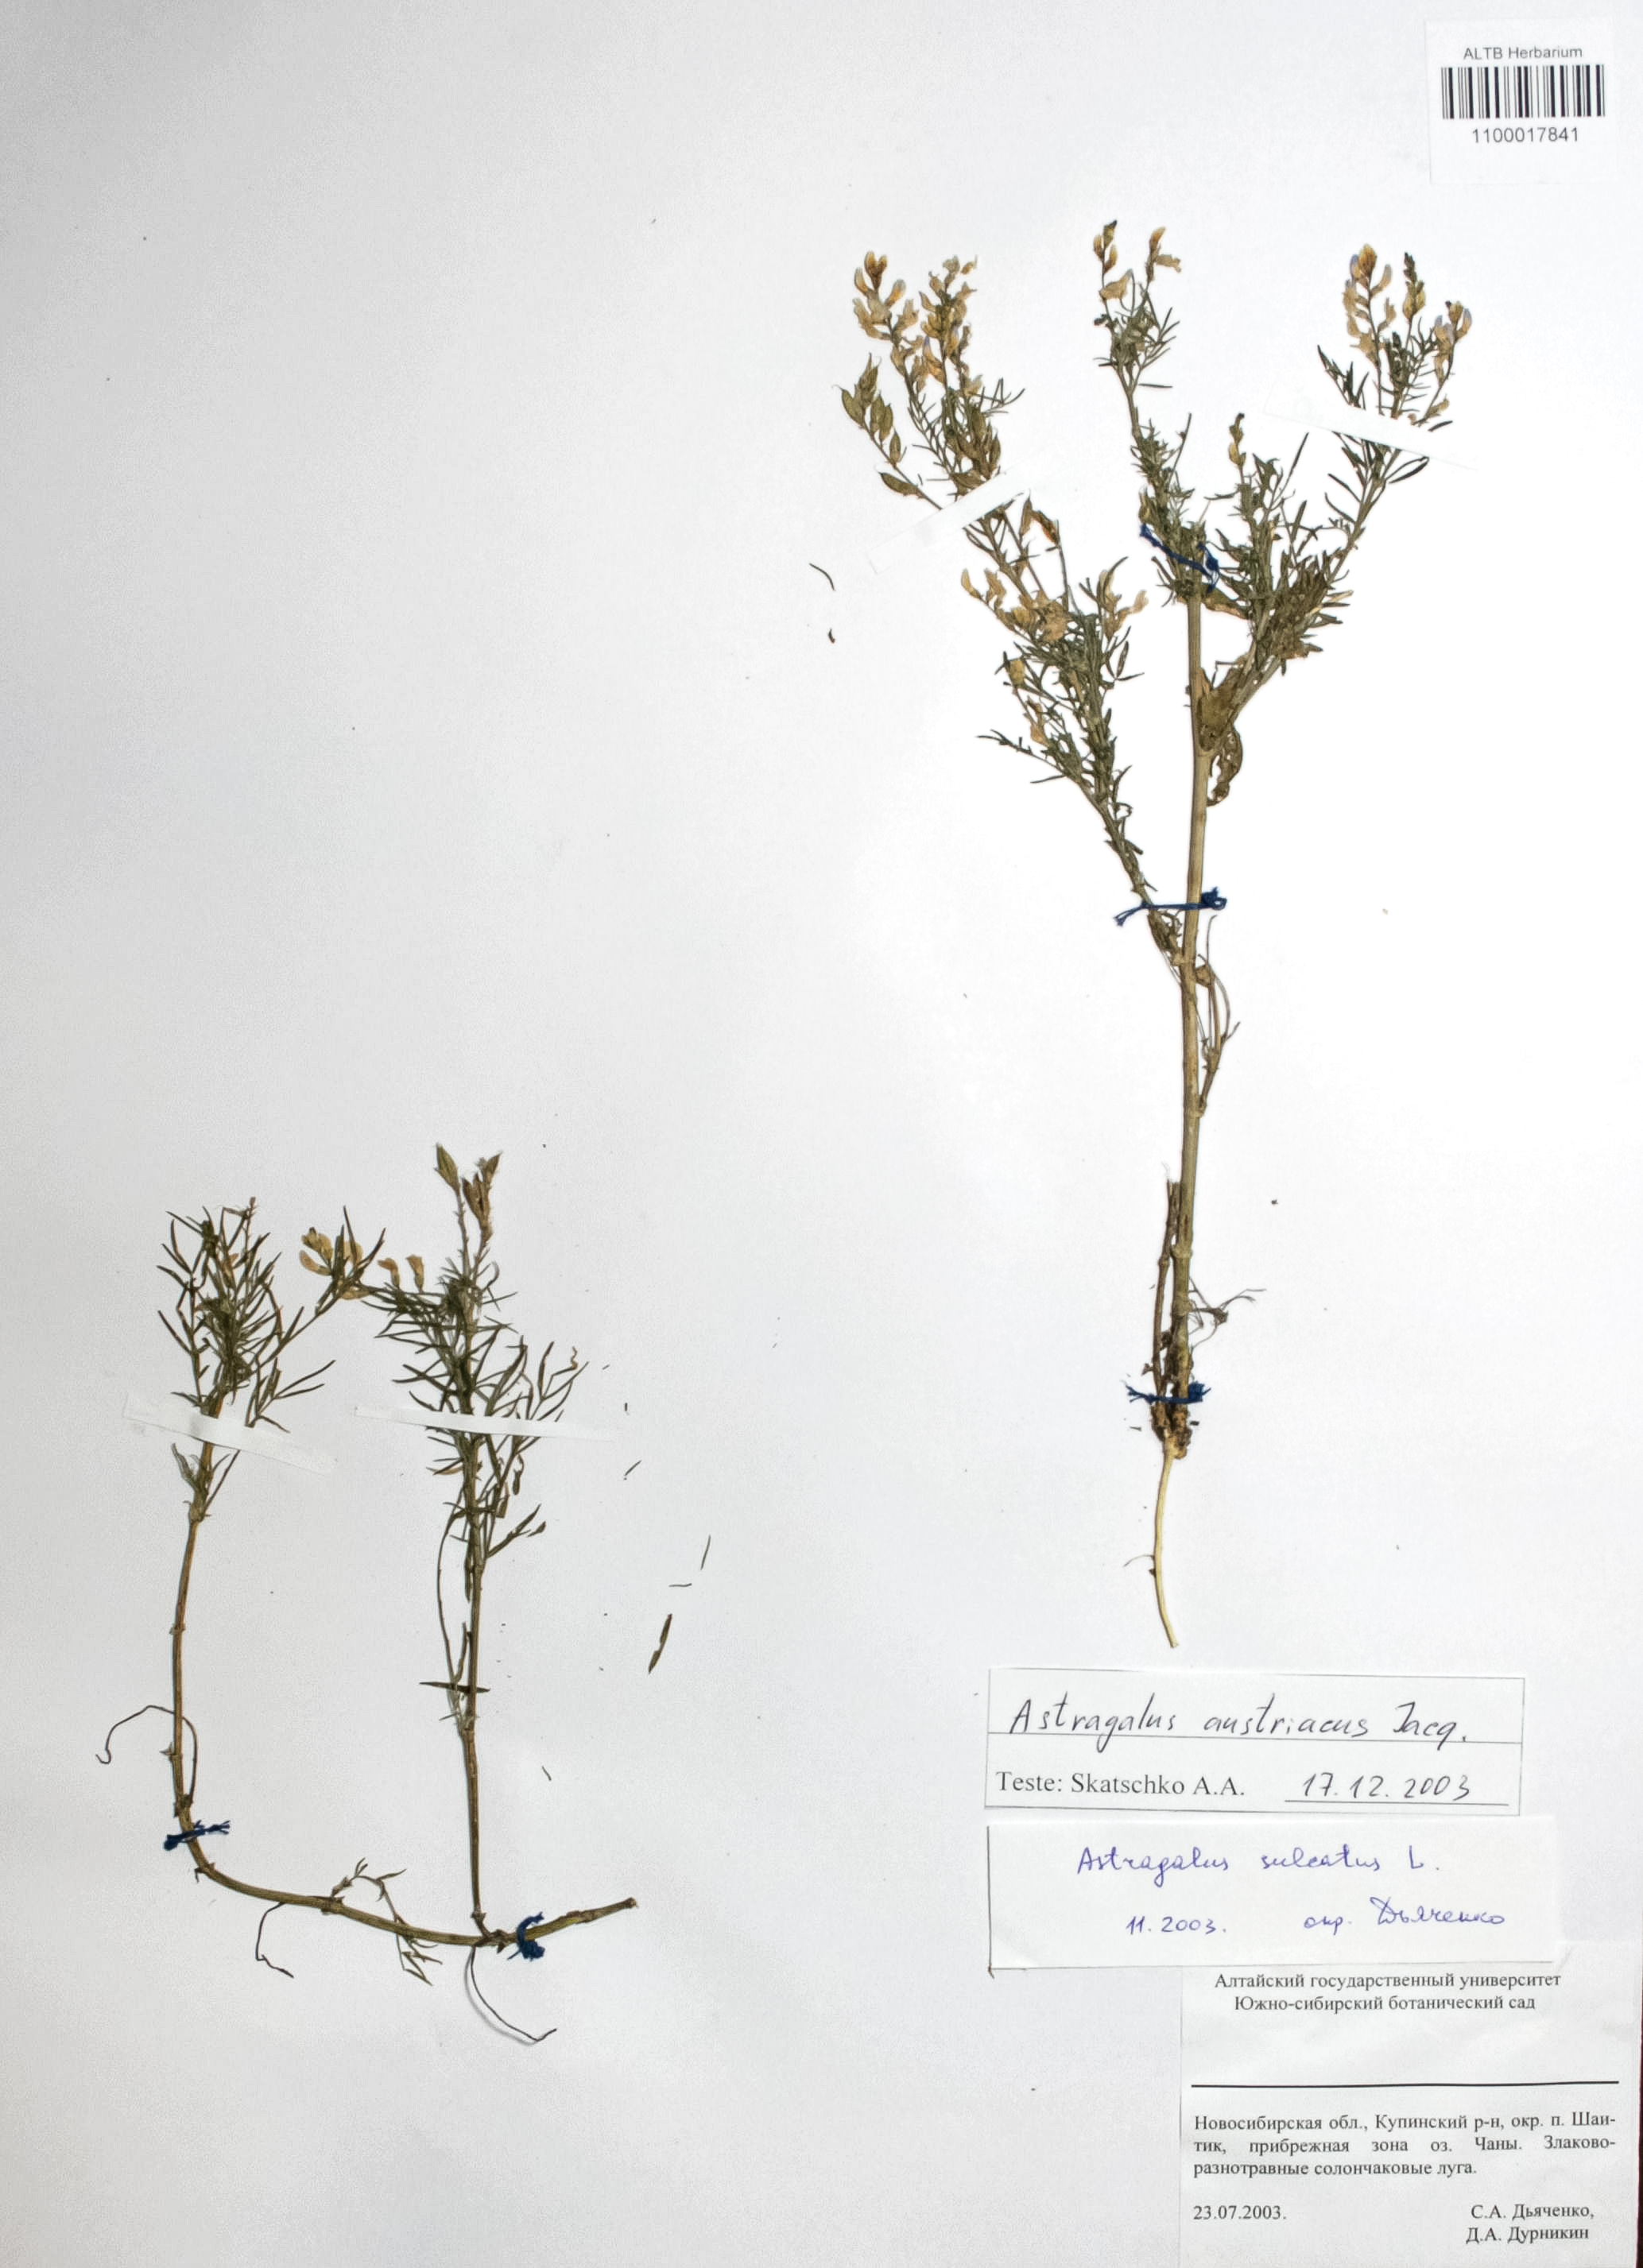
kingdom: Plantae
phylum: Tracheophyta
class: Magnoliopsida
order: Fabales
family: Fabaceae
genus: Astragalus
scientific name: Astragalus austriacus
